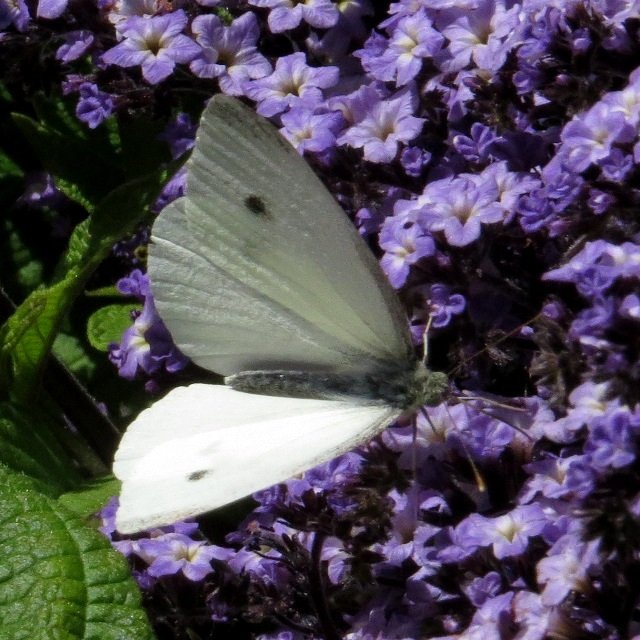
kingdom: Animalia
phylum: Arthropoda
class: Insecta
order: Lepidoptera
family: Pieridae
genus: Pieris
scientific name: Pieris rapae
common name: Cabbage White
